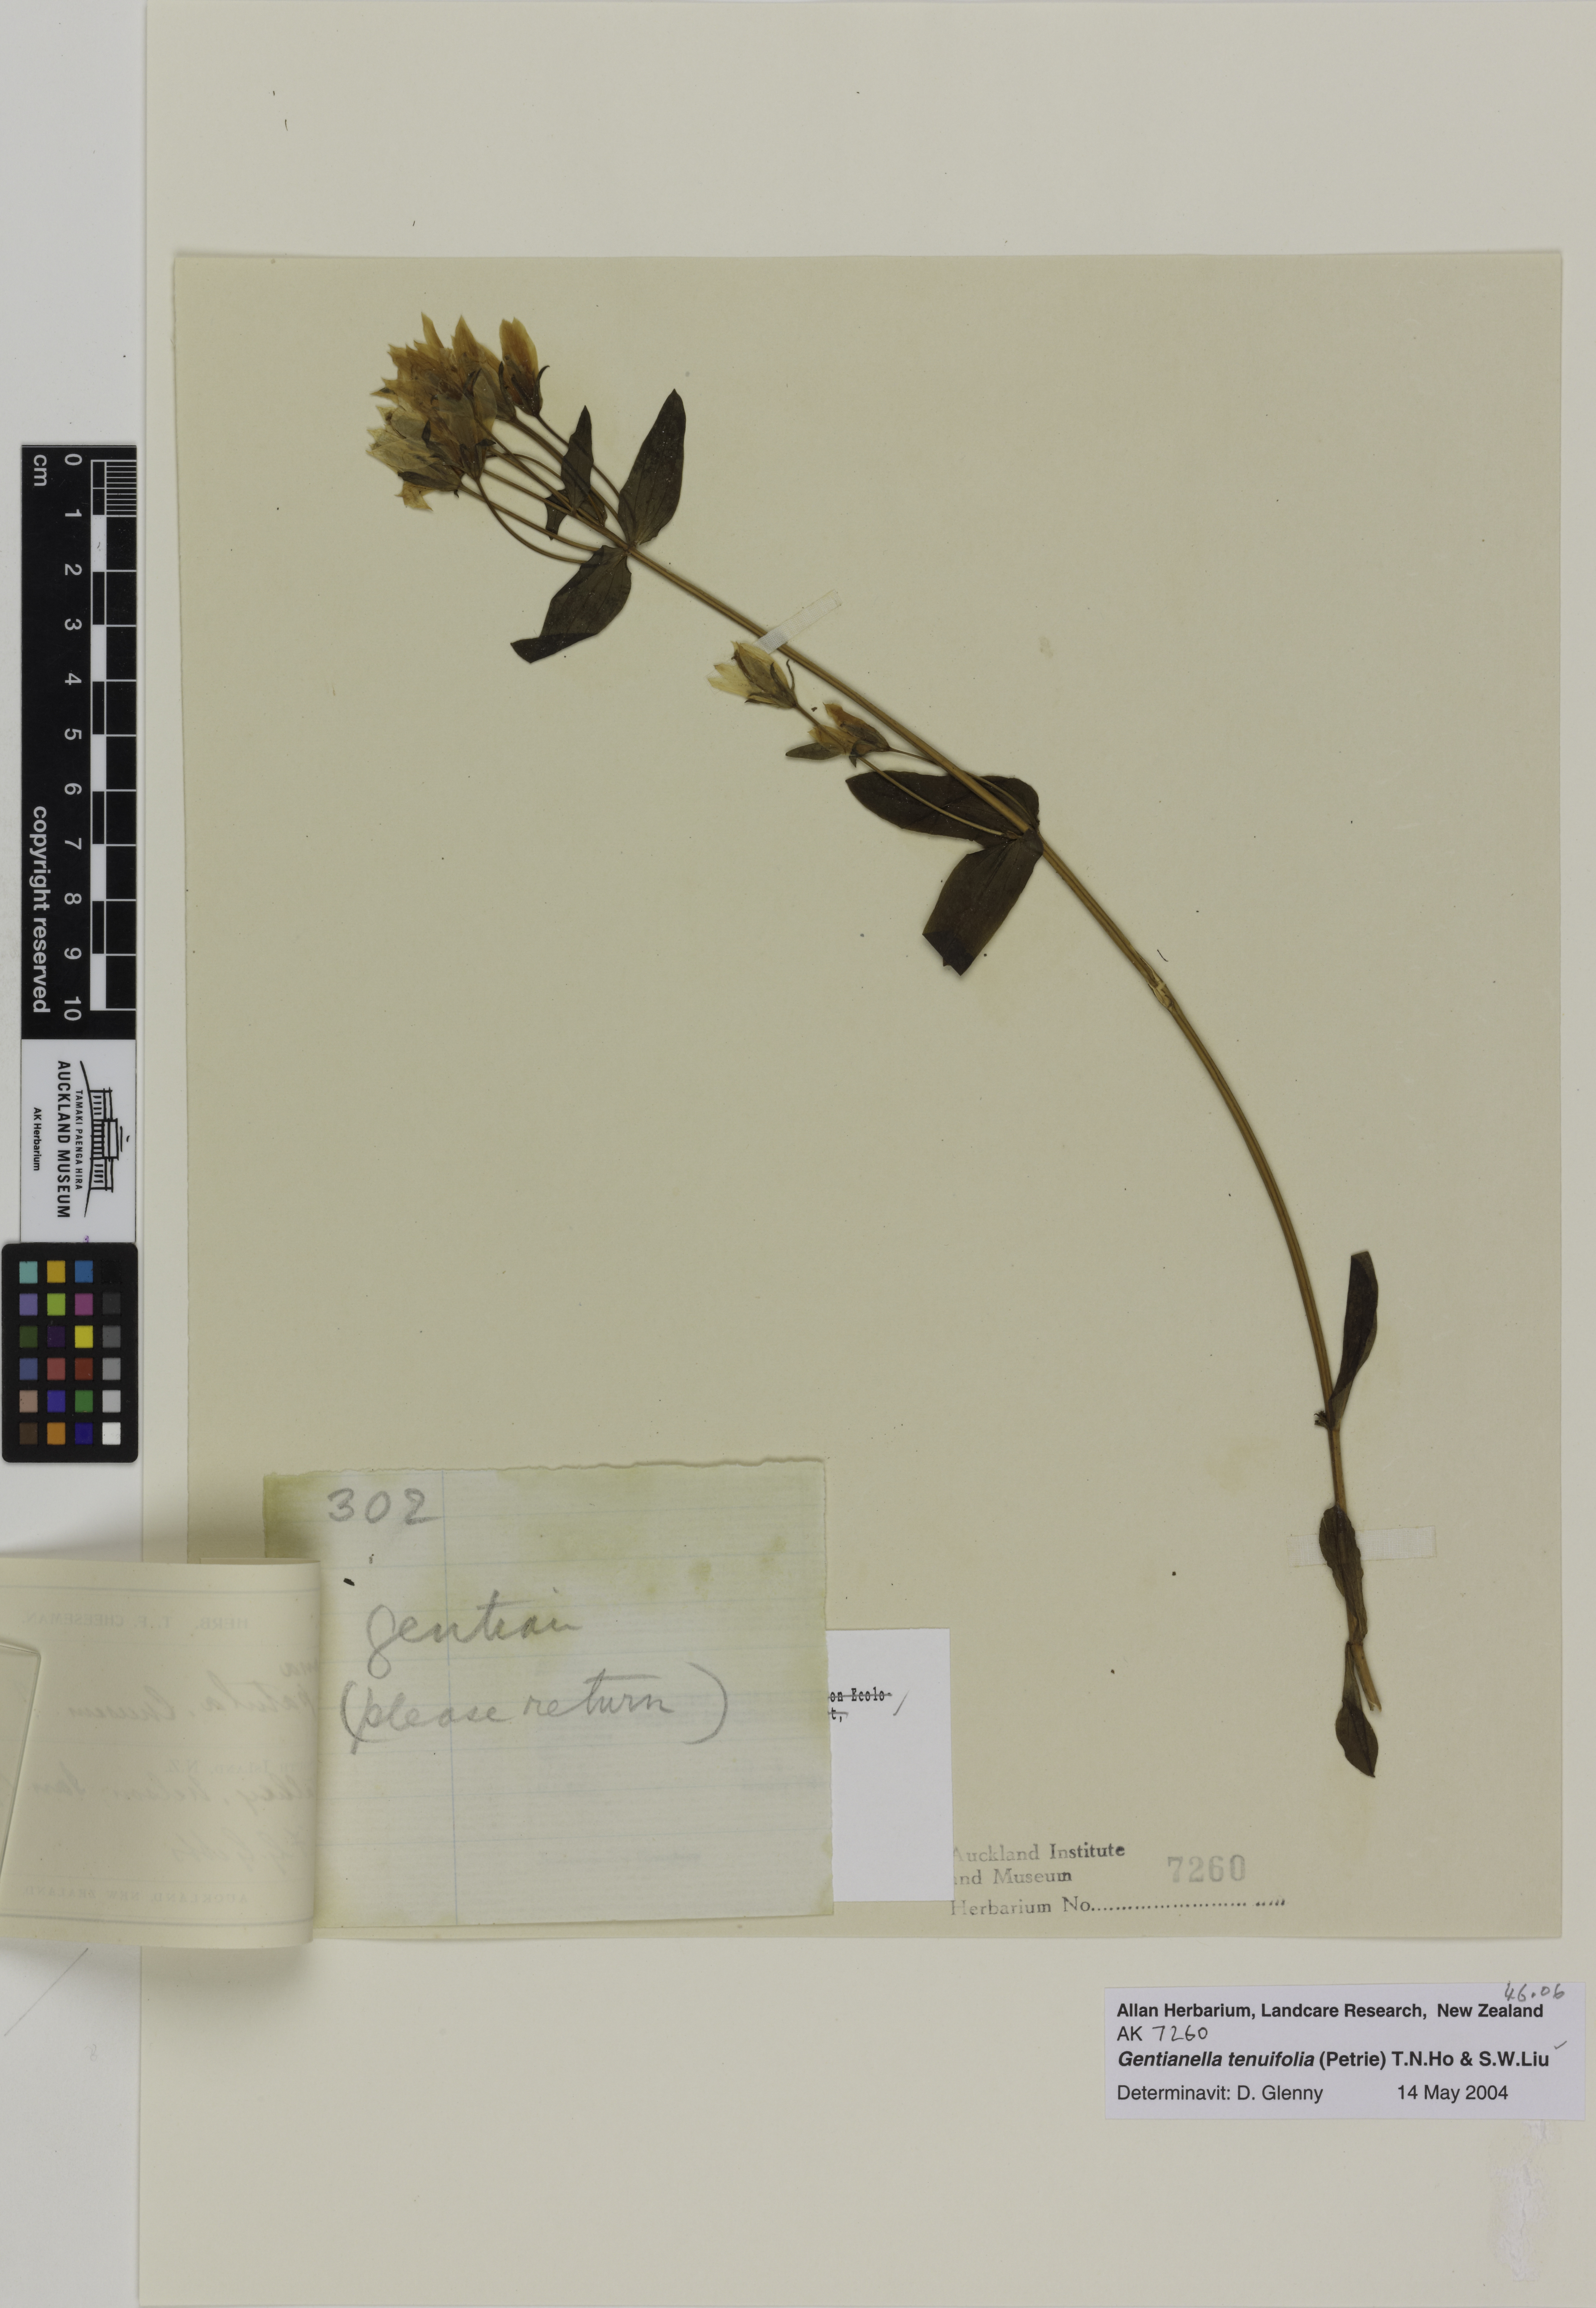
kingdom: Plantae
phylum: Tracheophyta
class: Magnoliopsida
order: Gentianales
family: Gentianaceae
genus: Gentianella
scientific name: Gentianella tenuifolia
